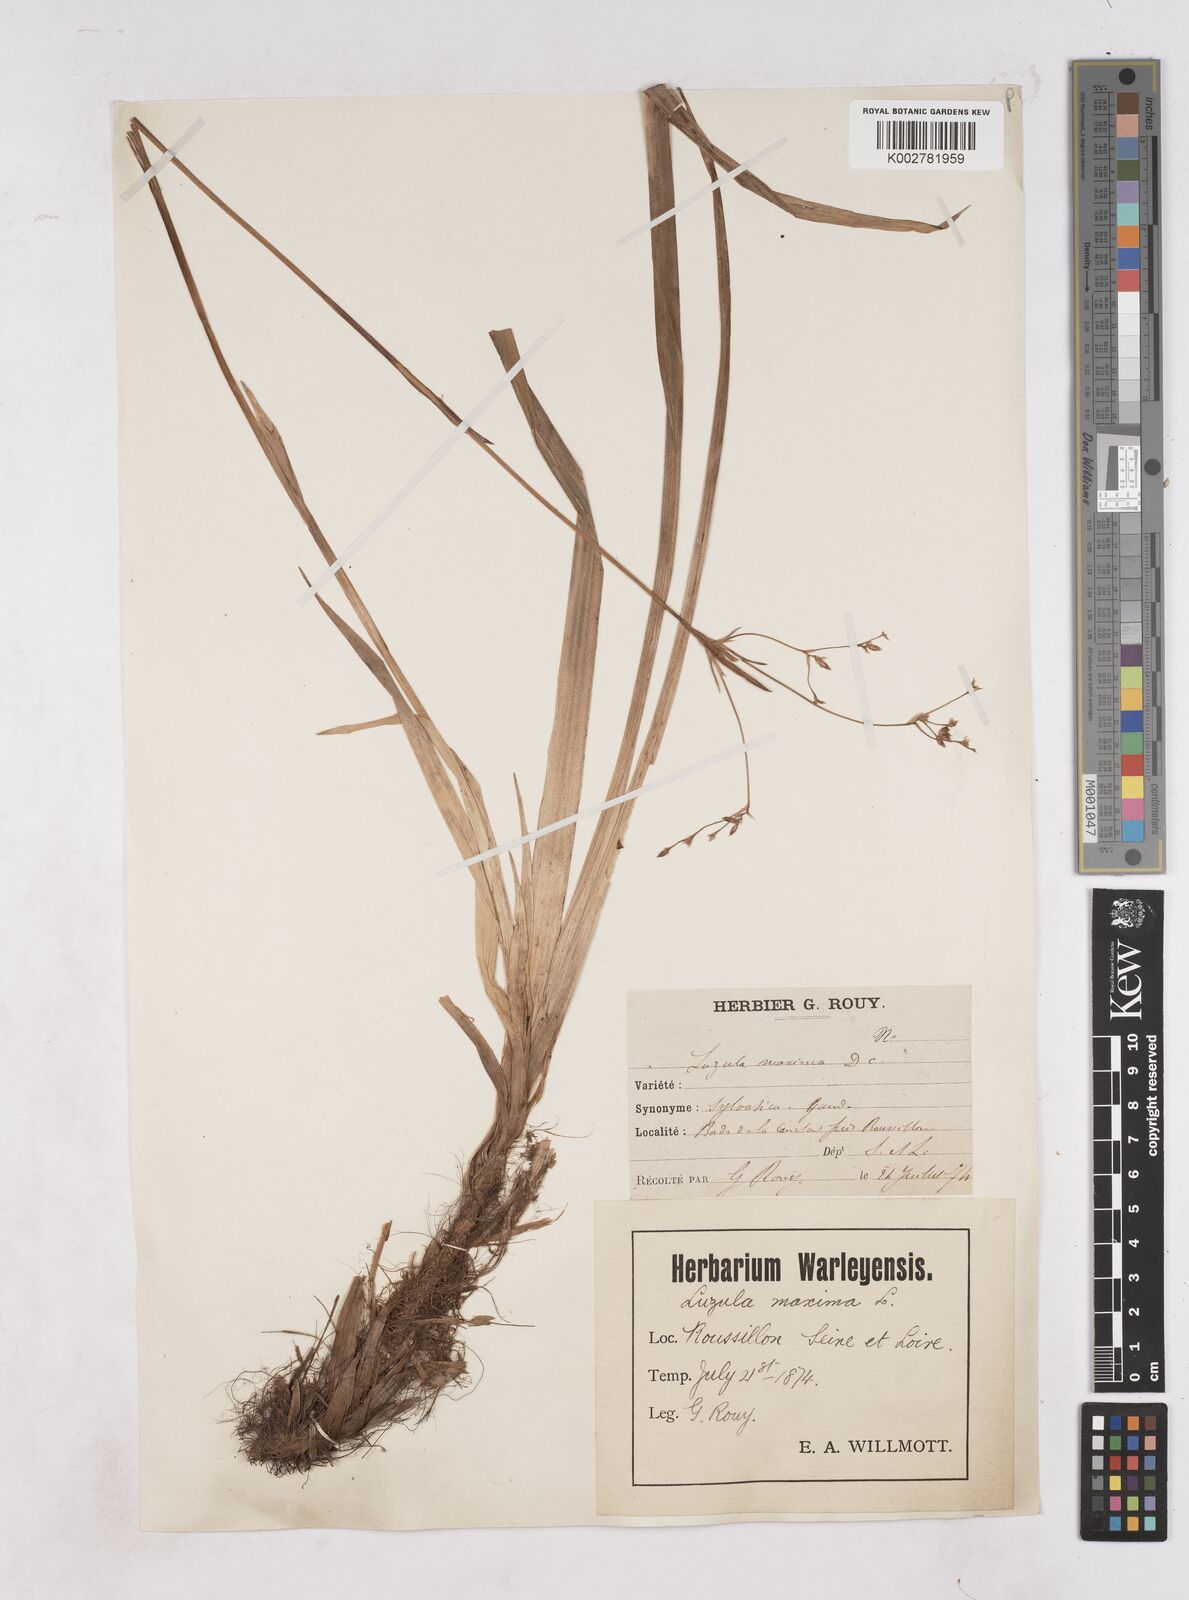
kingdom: Plantae
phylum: Tracheophyta
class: Liliopsida
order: Poales
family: Juncaceae
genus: Luzula
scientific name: Luzula sylvatica
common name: Great wood-rush
